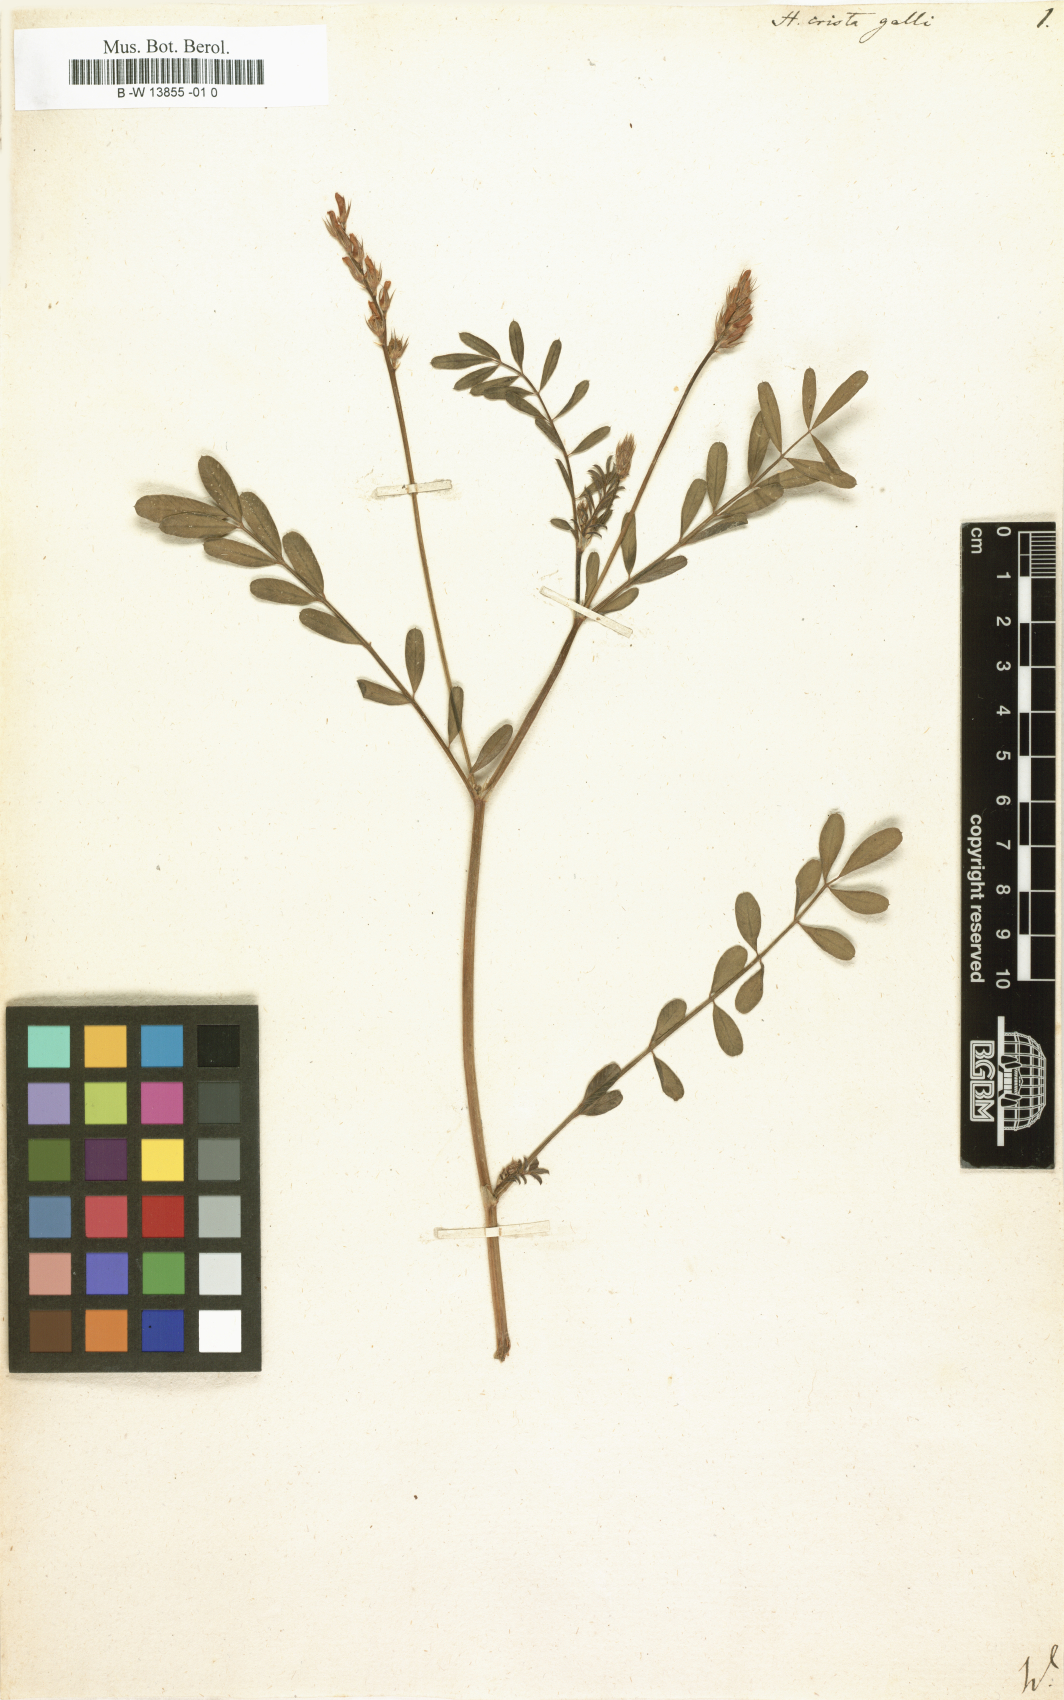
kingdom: Plantae
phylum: Tracheophyta
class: Magnoliopsida
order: Fabales
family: Fabaceae
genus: Onobrychis
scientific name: Onobrychis crista-galli
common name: Cockscomb sainfoin
